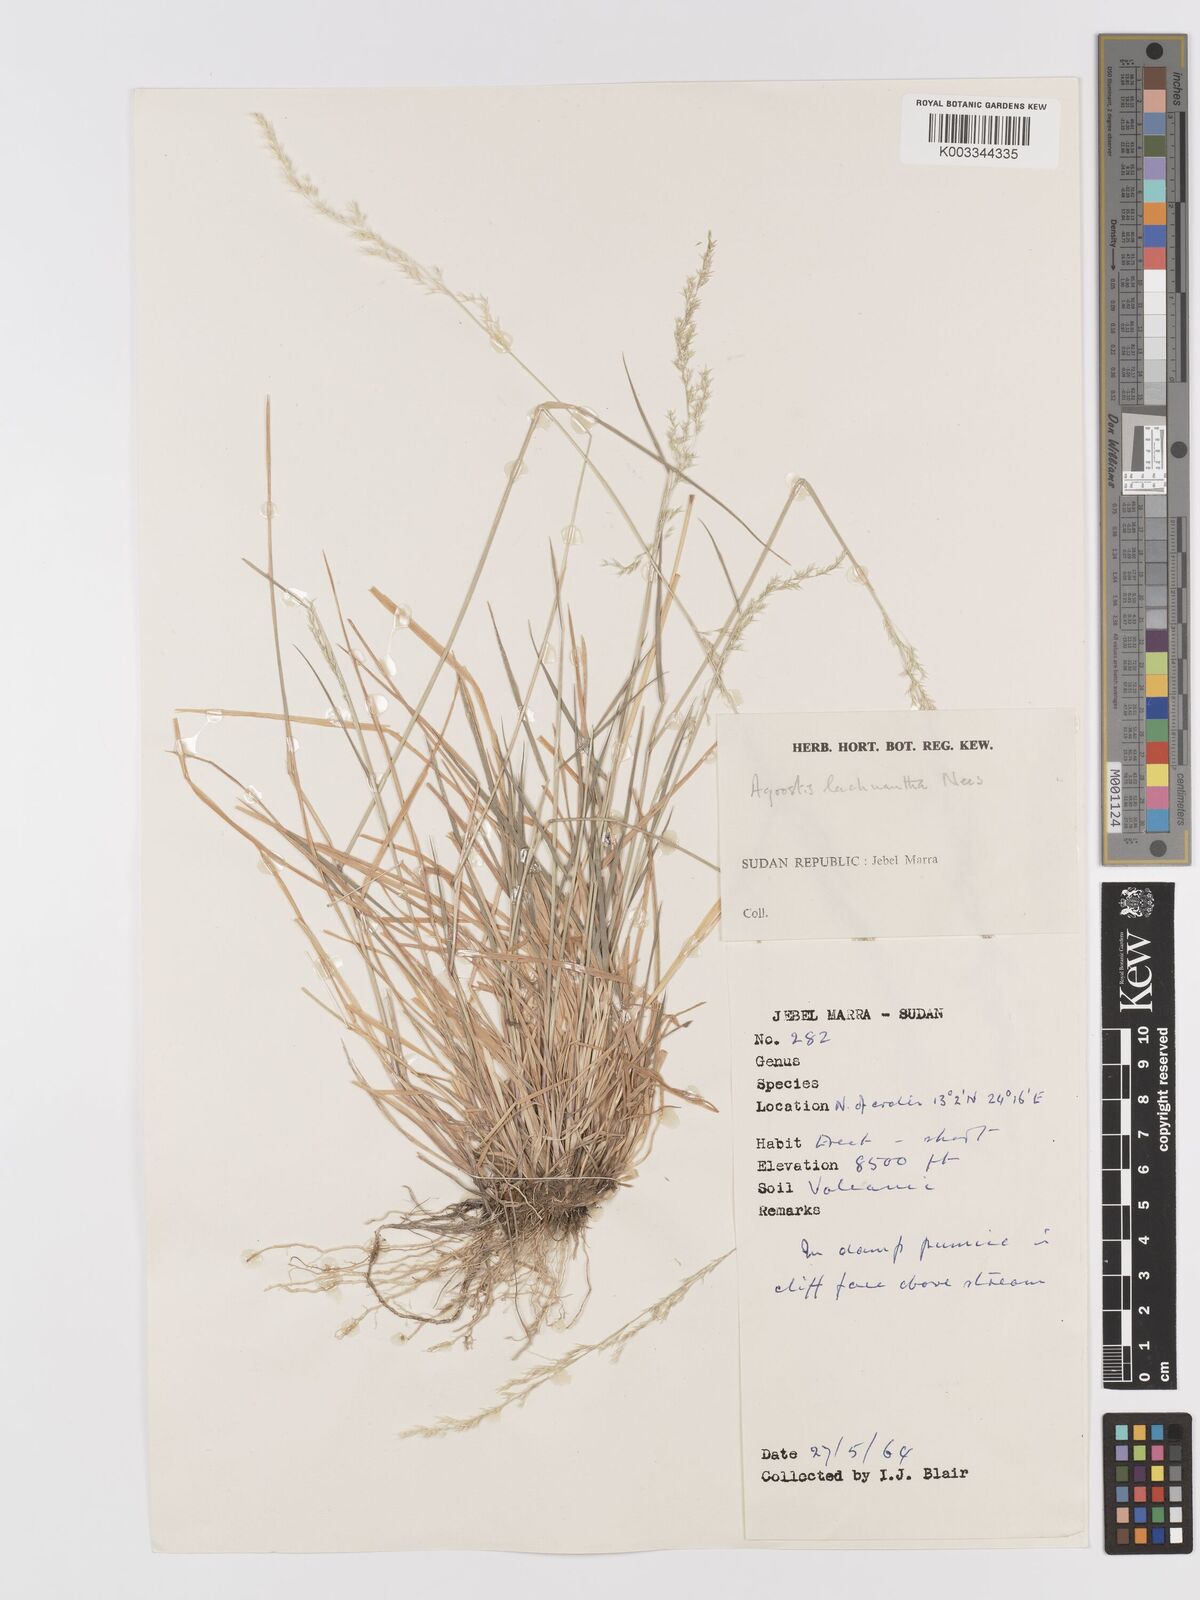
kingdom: Plantae
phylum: Tracheophyta
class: Liliopsida
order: Poales
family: Poaceae
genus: Lachnagrostis
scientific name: Lachnagrostis lachnantha
